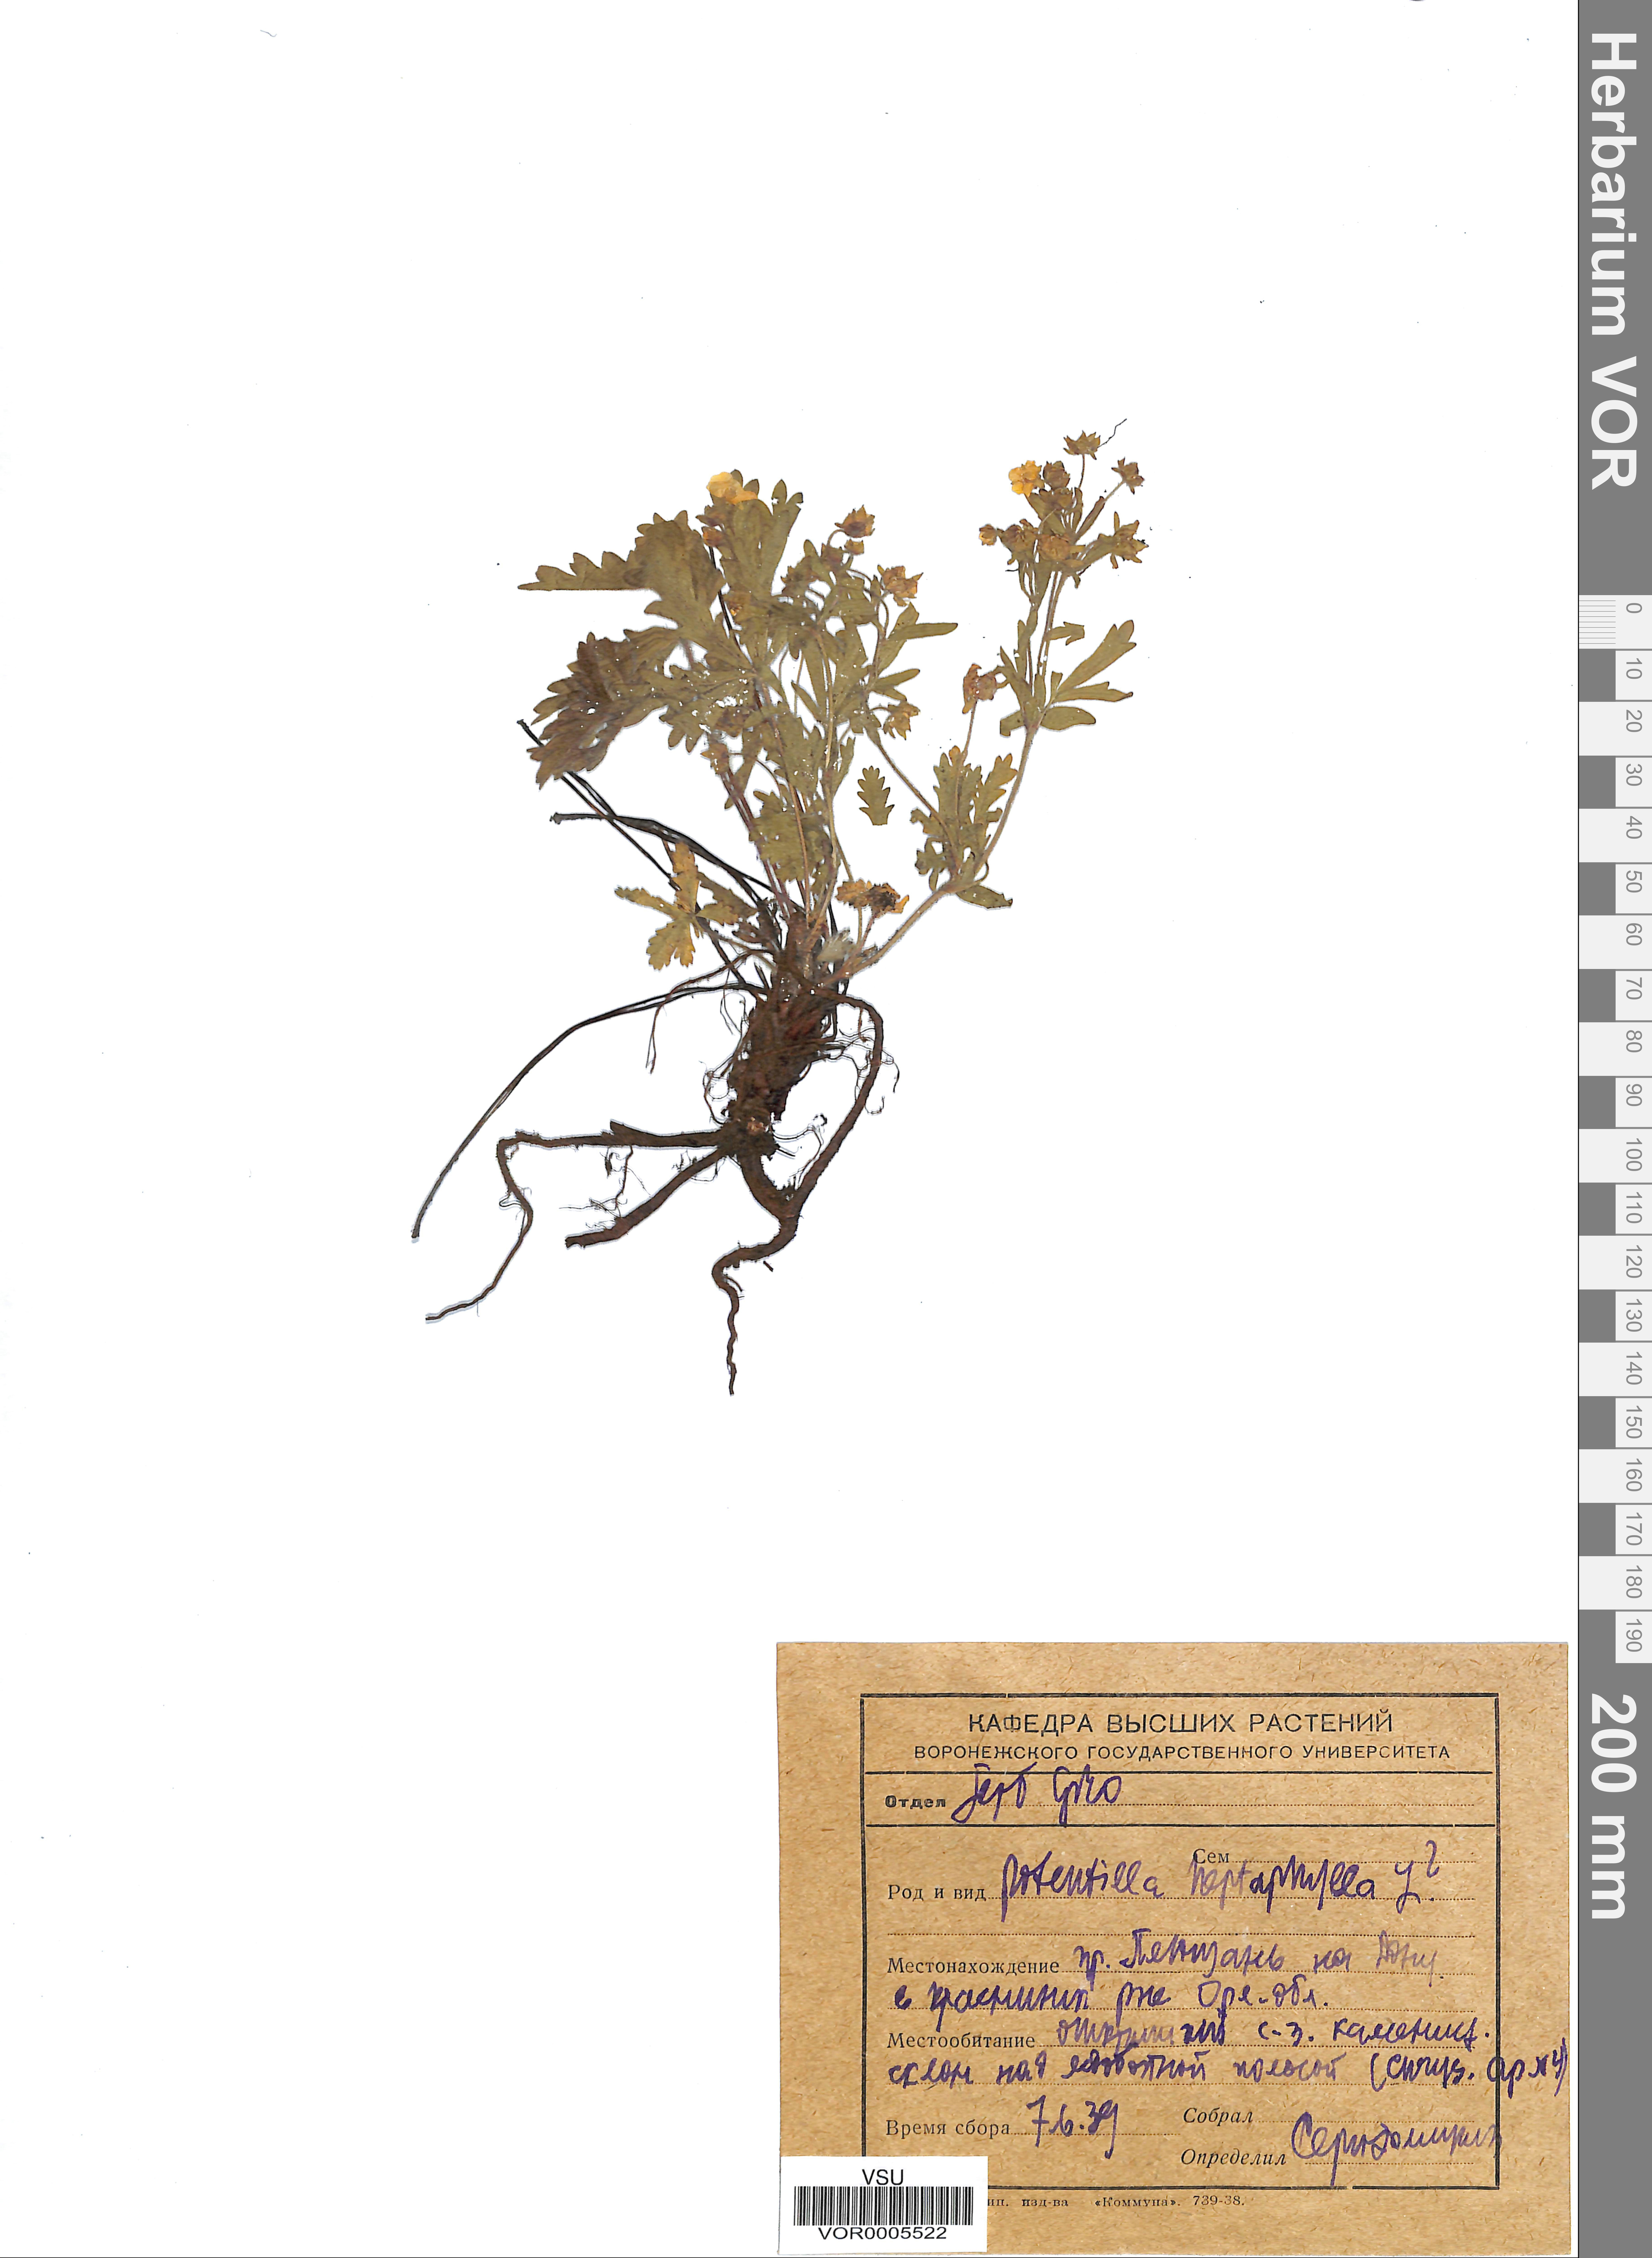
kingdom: Plantae
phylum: Tracheophyta
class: Magnoliopsida
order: Rosales
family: Rosaceae
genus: Potentilla
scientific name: Potentilla heptaphylla
